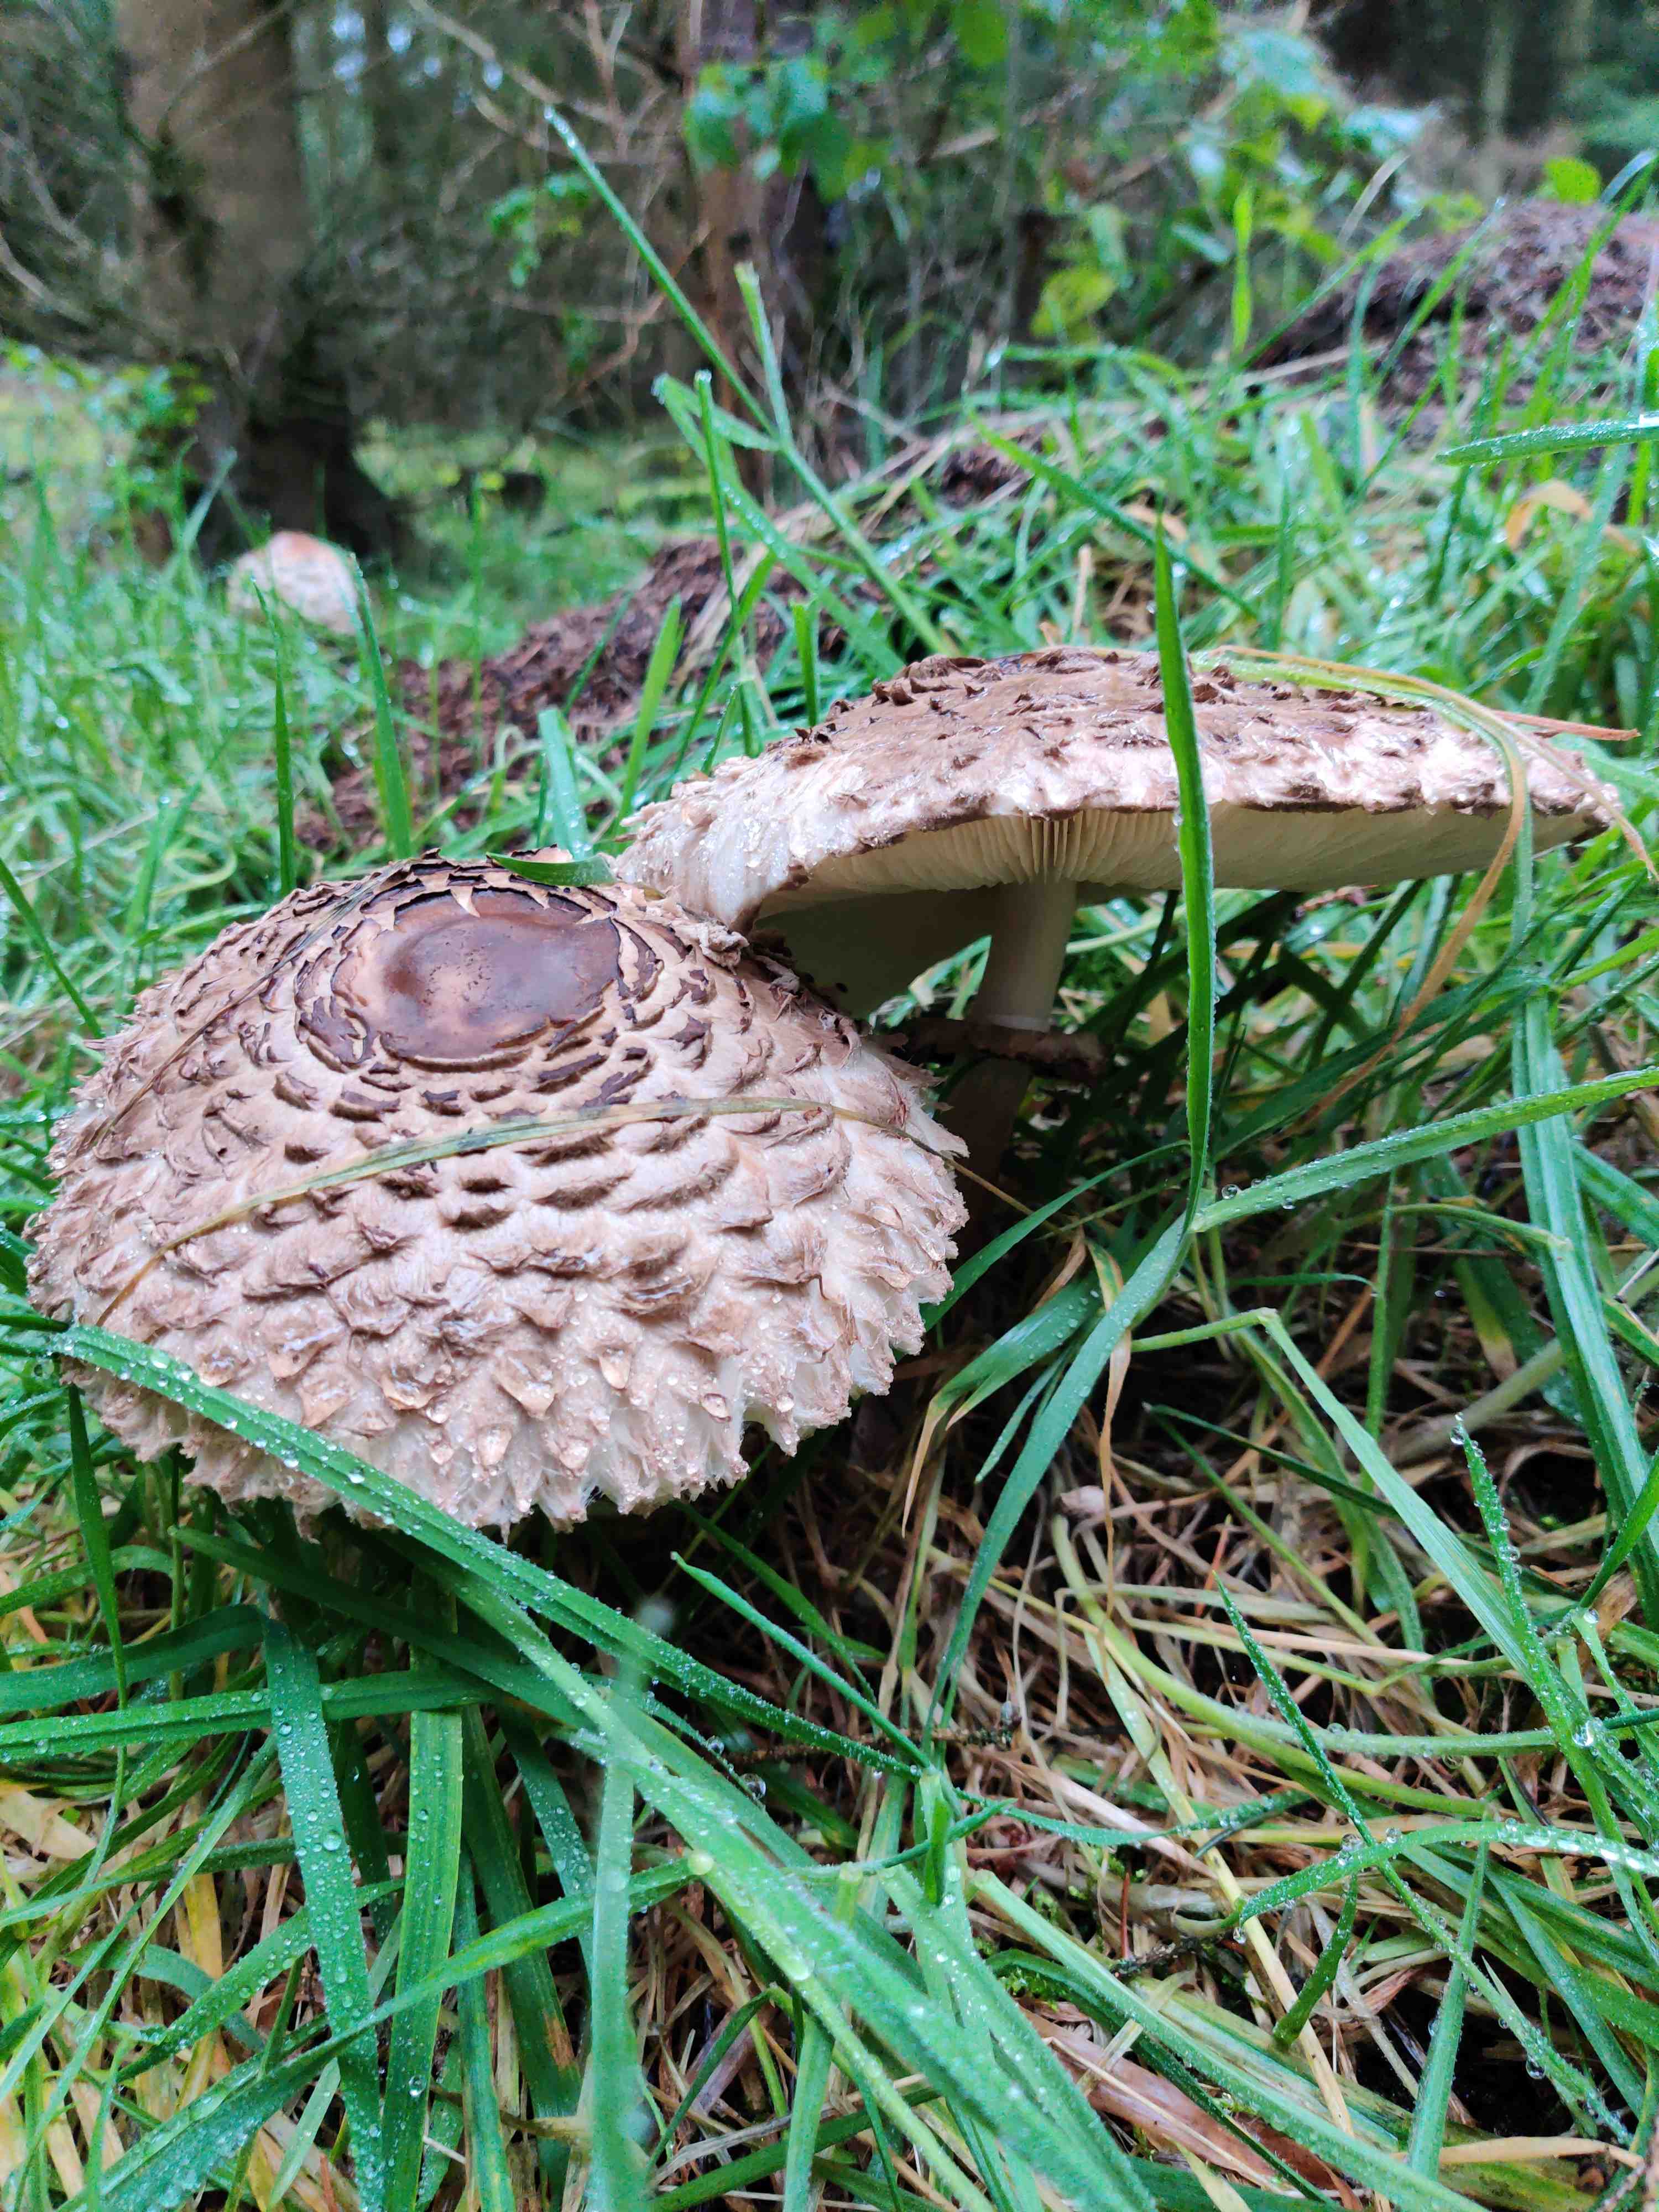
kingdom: Fungi
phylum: Basidiomycota
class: Agaricomycetes
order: Agaricales
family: Agaricaceae
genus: Chlorophyllum
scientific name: Chlorophyllum rhacodes
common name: ægte rabarberhat
